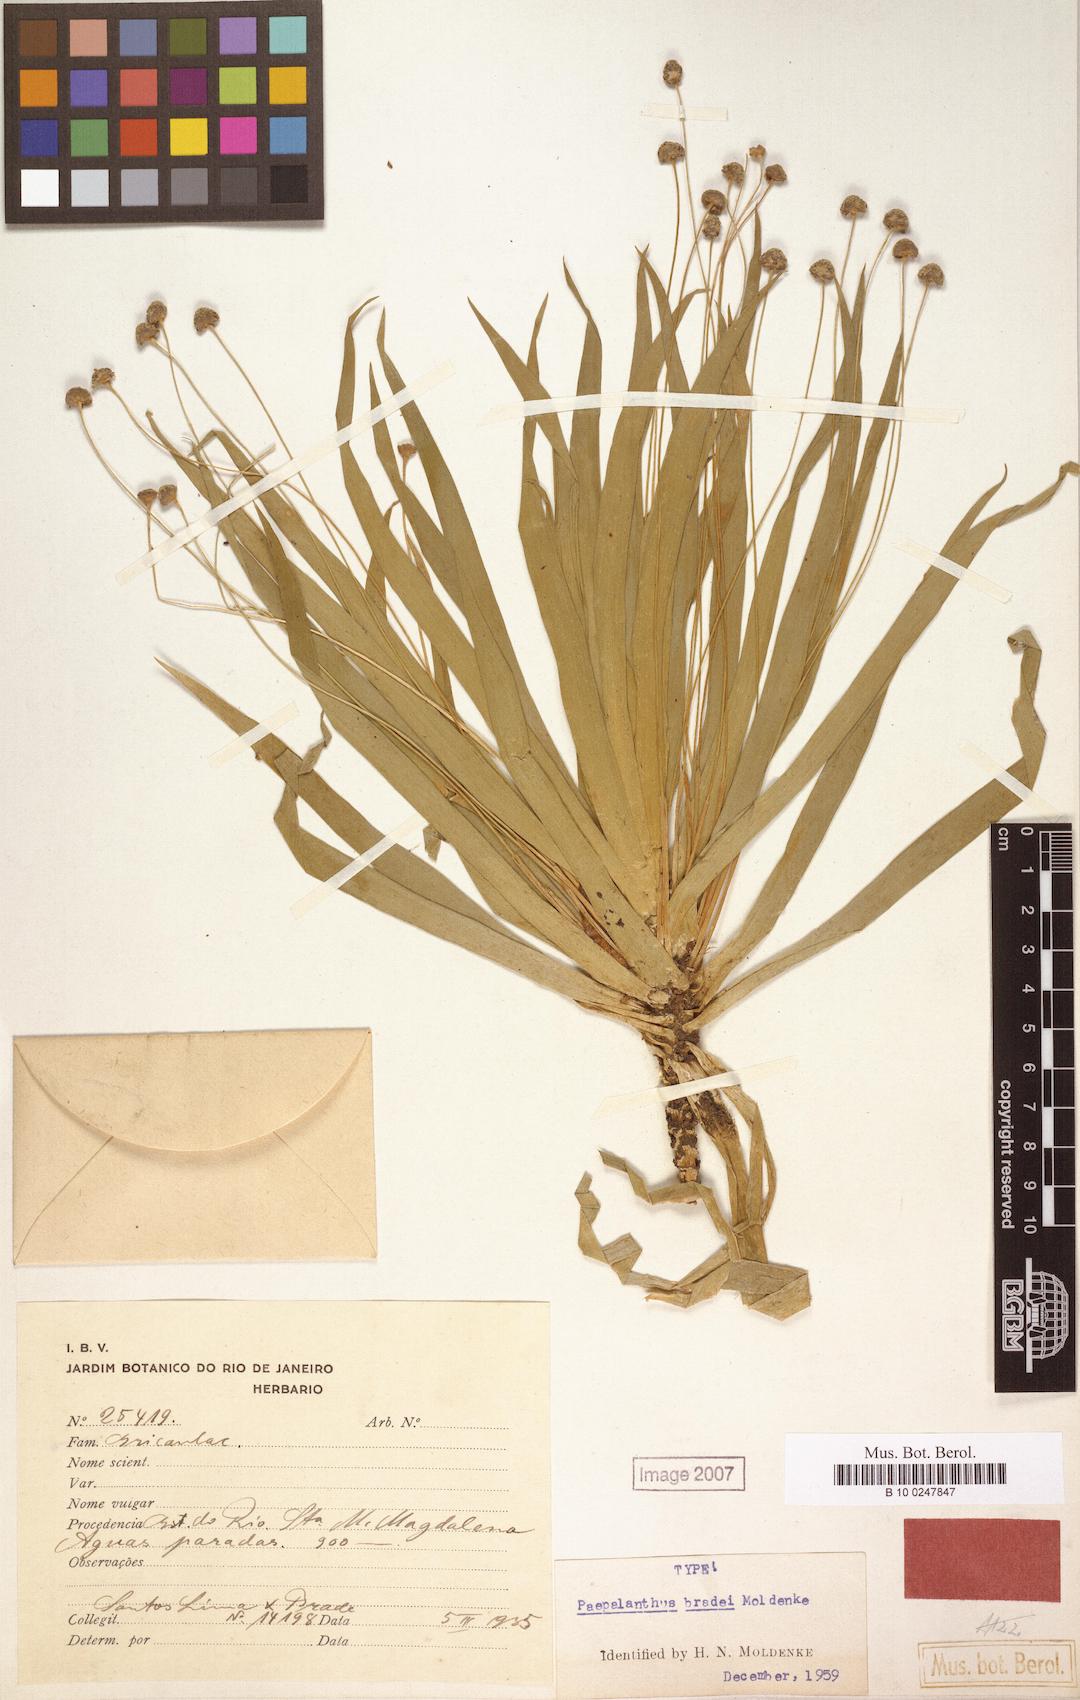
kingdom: Plantae
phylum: Tracheophyta
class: Liliopsida
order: Poales
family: Eriocaulaceae
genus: Paepalanthus
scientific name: Paepalanthus macaheensis
